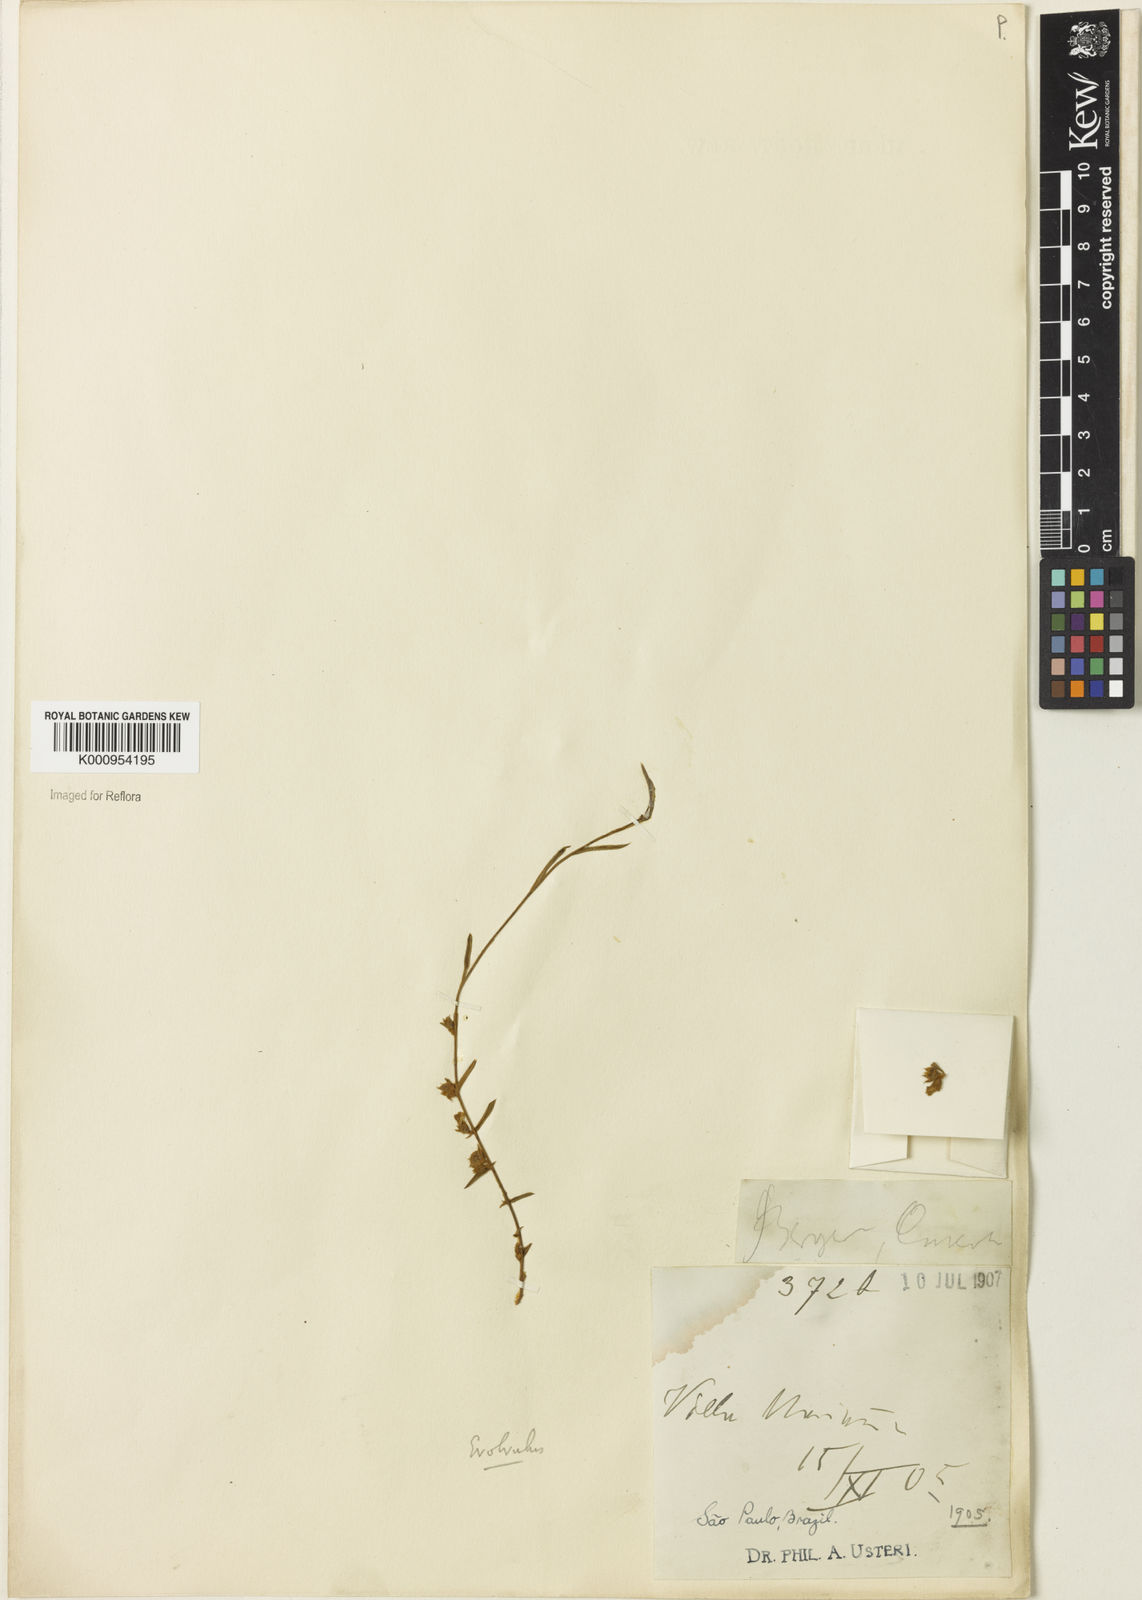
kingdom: Plantae
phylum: Tracheophyta
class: Magnoliopsida
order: Solanales
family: Convolvulaceae
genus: Evolvulus
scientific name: Evolvulus
